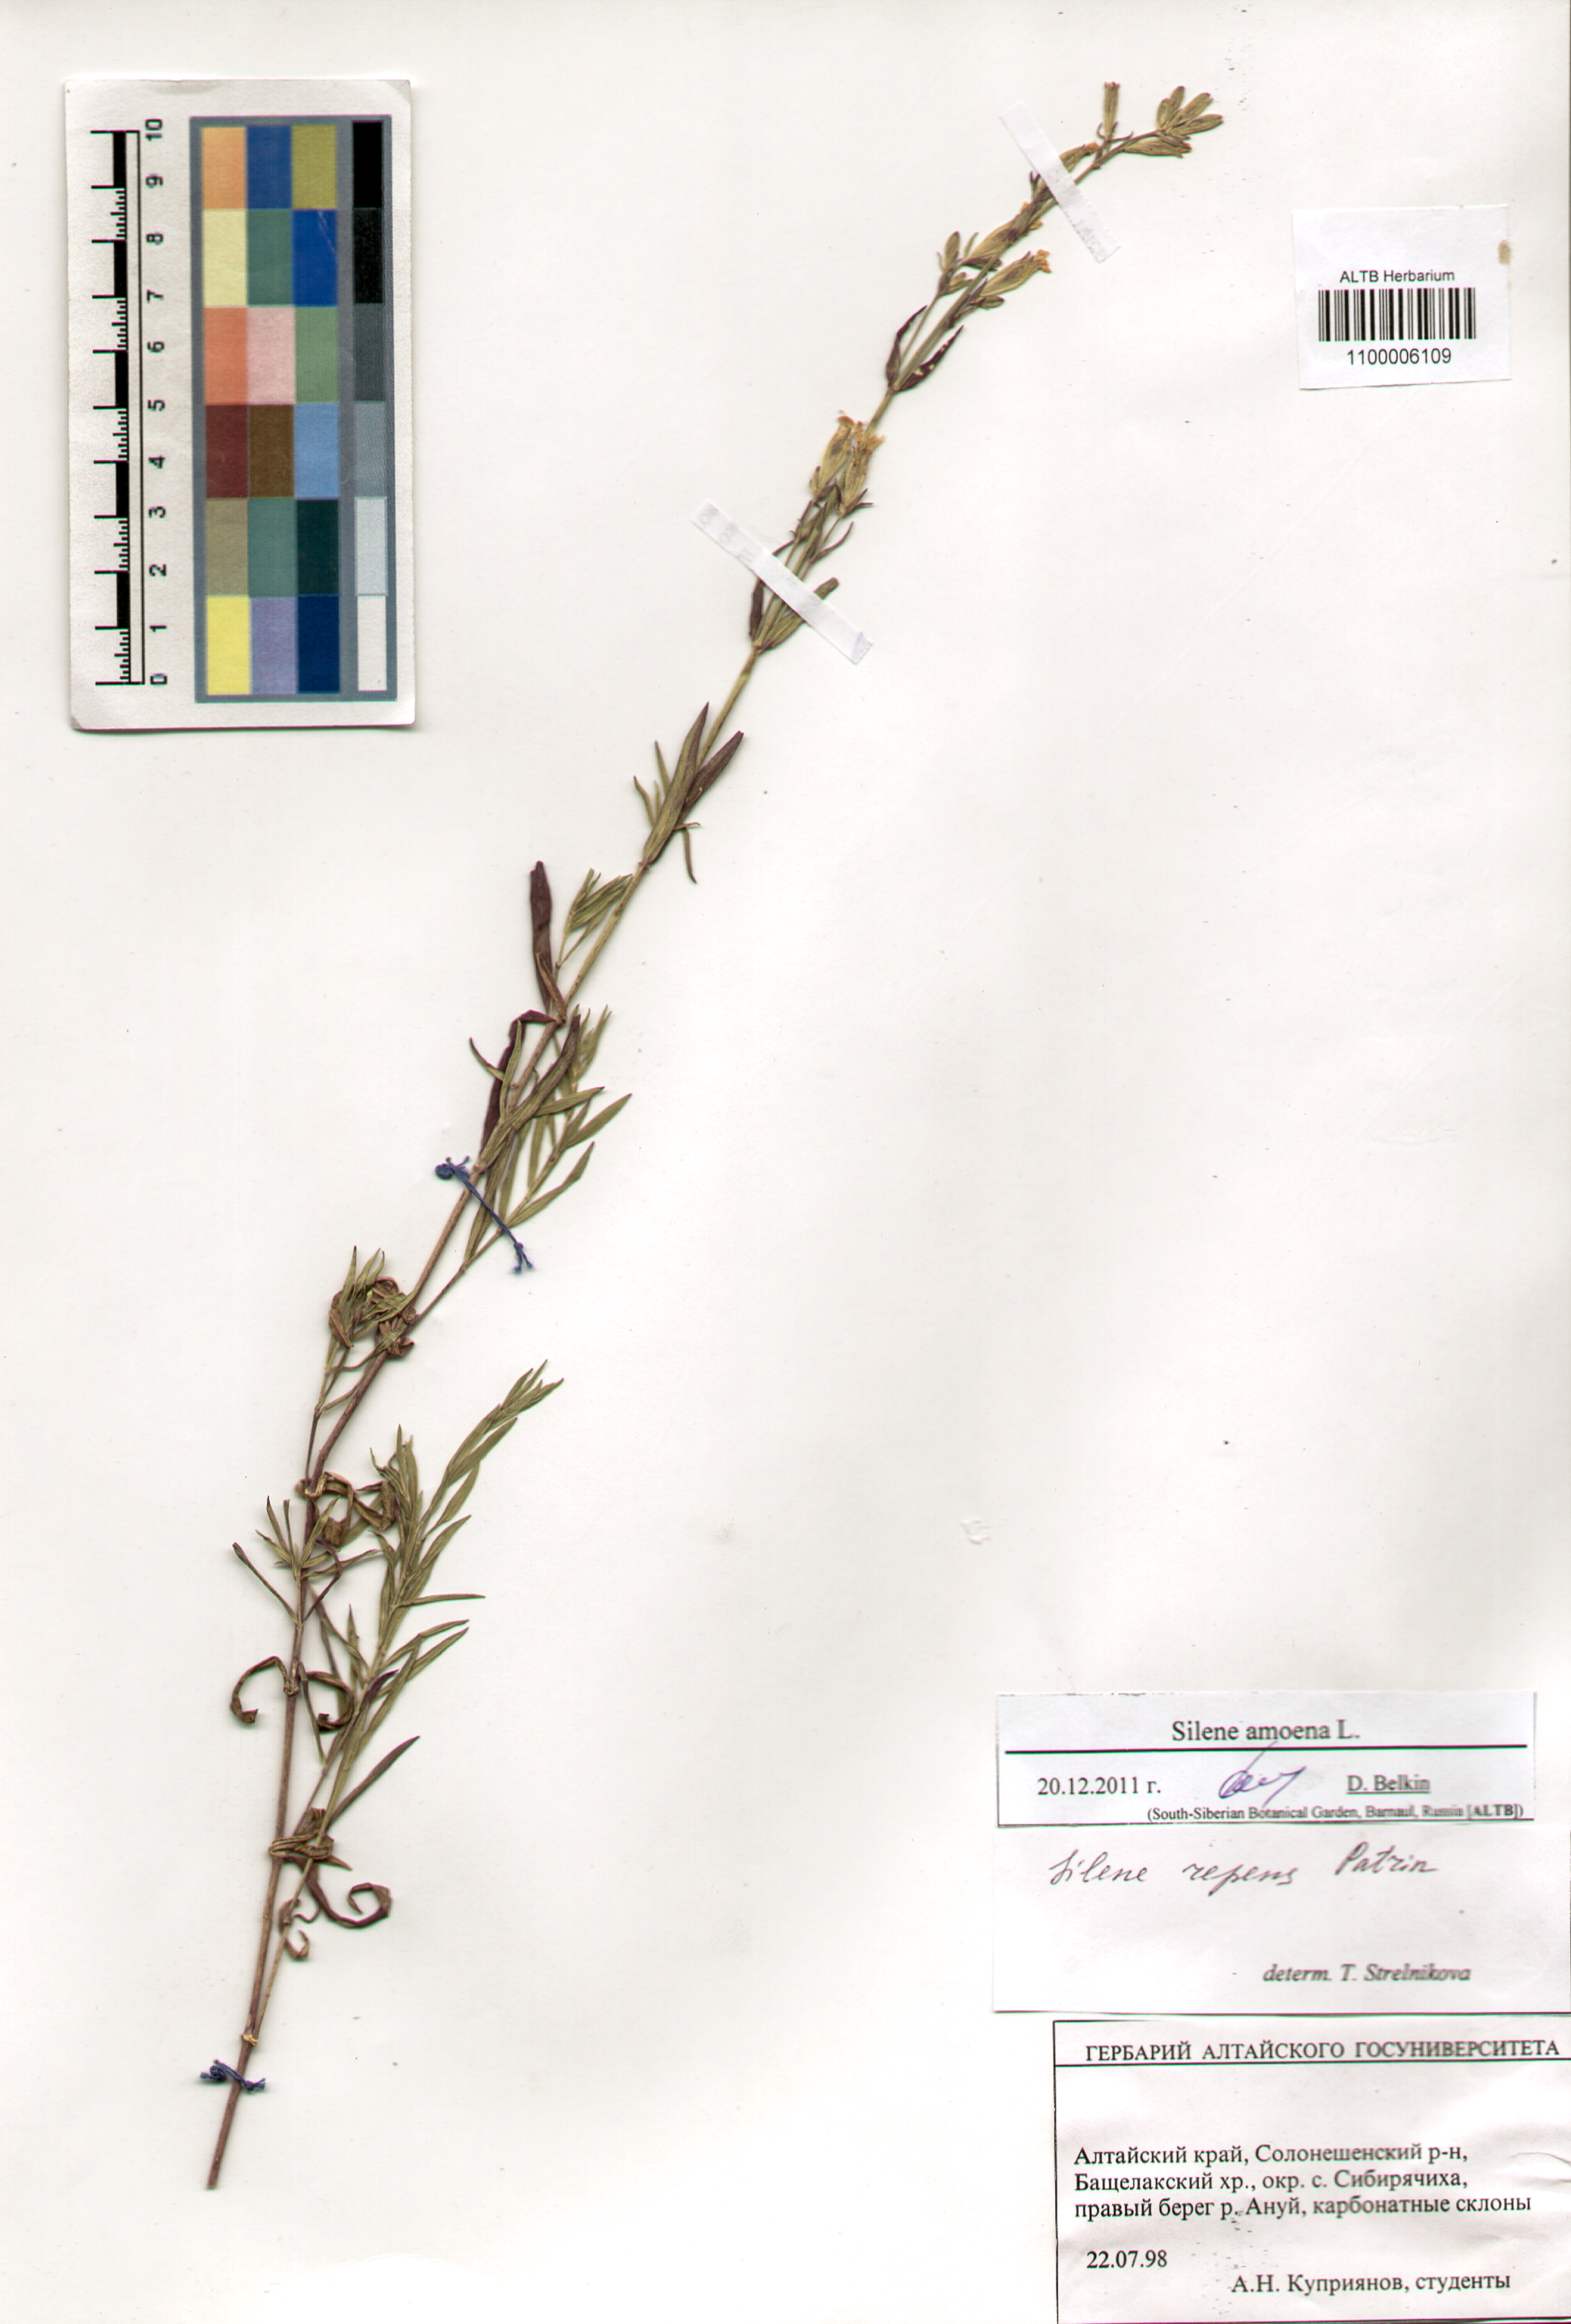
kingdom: Plantae
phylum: Tracheophyta
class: Magnoliopsida
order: Caryophyllales
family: Caryophyllaceae
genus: Silene
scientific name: Silene amoena
